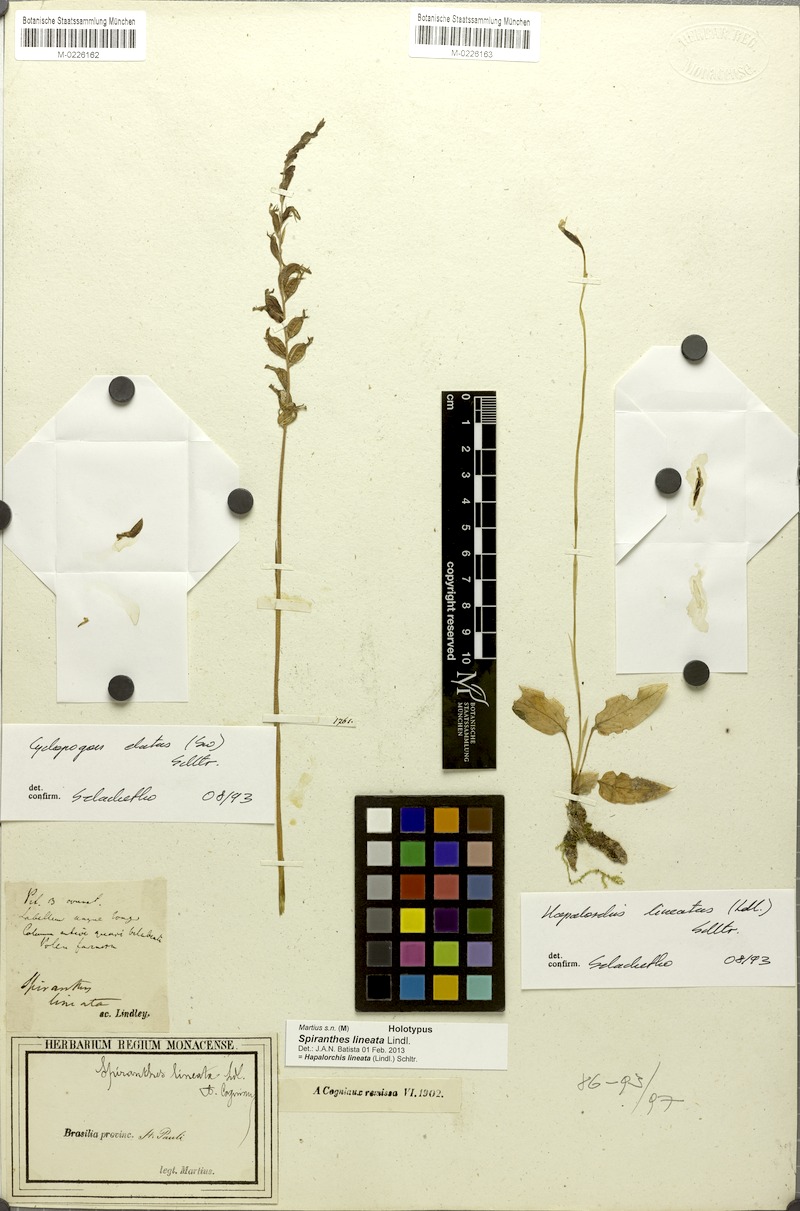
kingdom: Plantae
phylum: Tracheophyta
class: Liliopsida
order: Asparagales
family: Orchidaceae
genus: Hapalorchis
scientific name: Hapalorchis lineata
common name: Tropical ladies'-tresses
